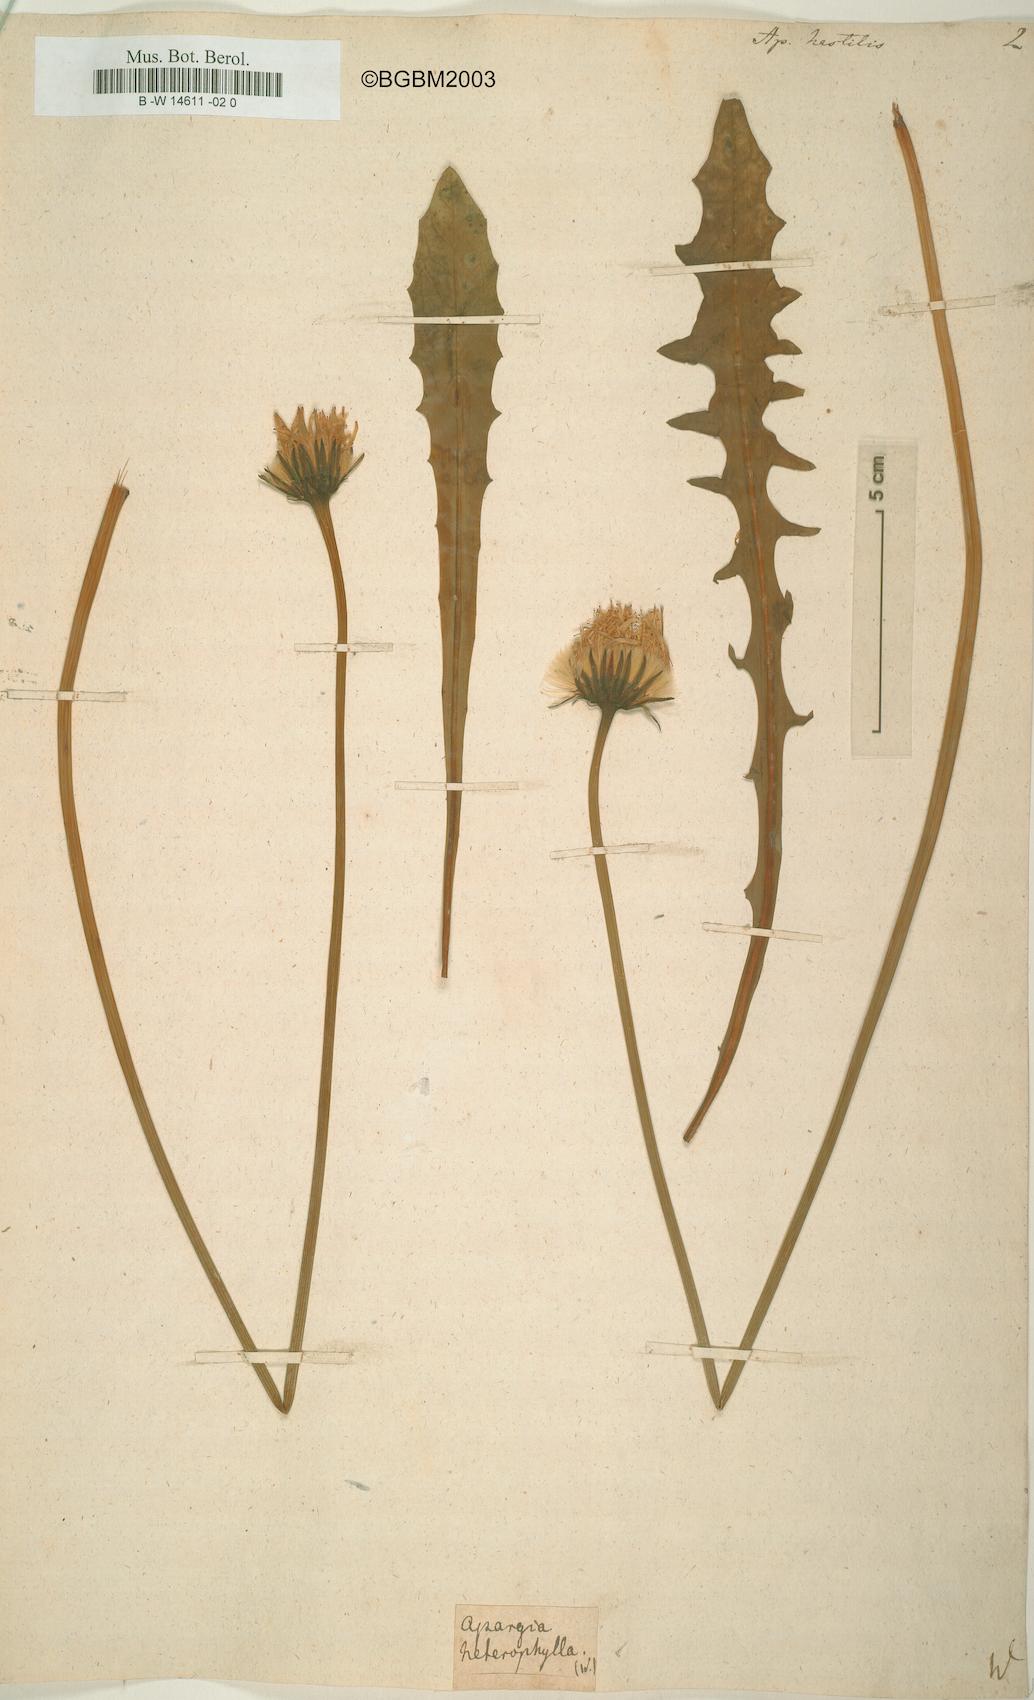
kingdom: Plantae
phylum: Tracheophyta
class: Magnoliopsida
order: Asterales
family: Asteraceae
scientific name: Asteraceae
